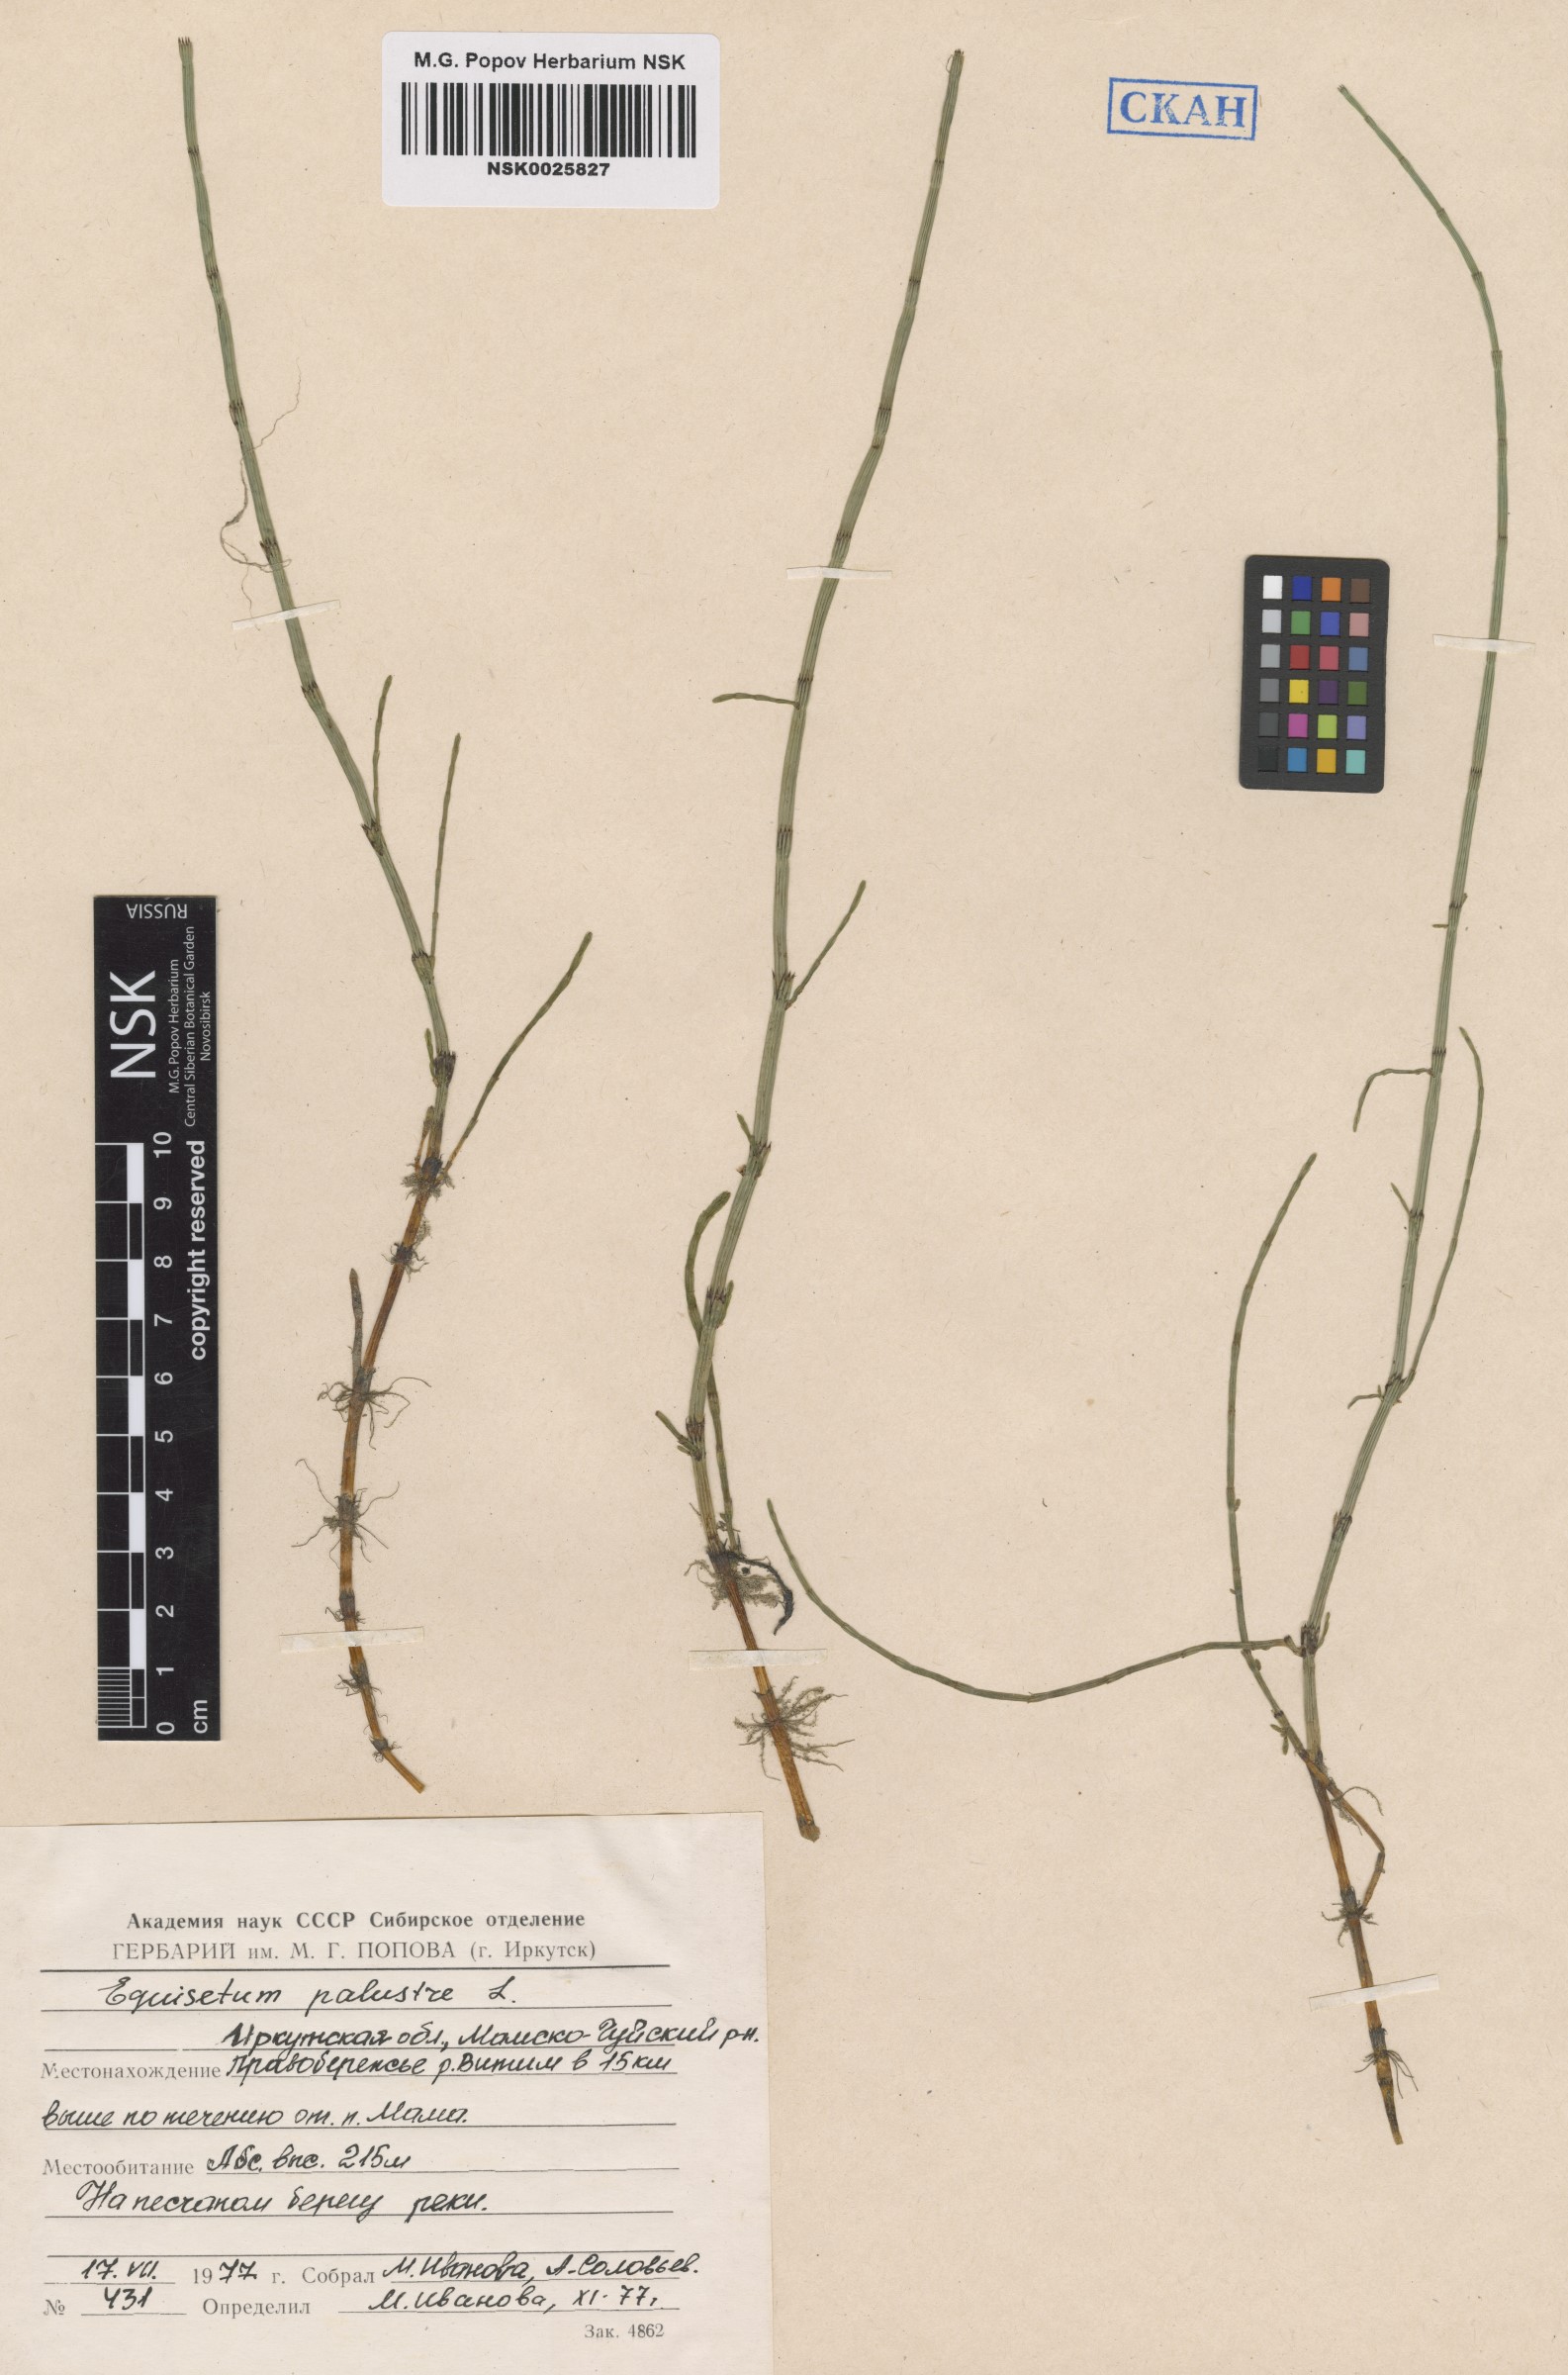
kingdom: Plantae
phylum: Tracheophyta
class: Polypodiopsida
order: Equisetales
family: Equisetaceae
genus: Equisetum
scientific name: Equisetum palustre
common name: Marsh horsetail
